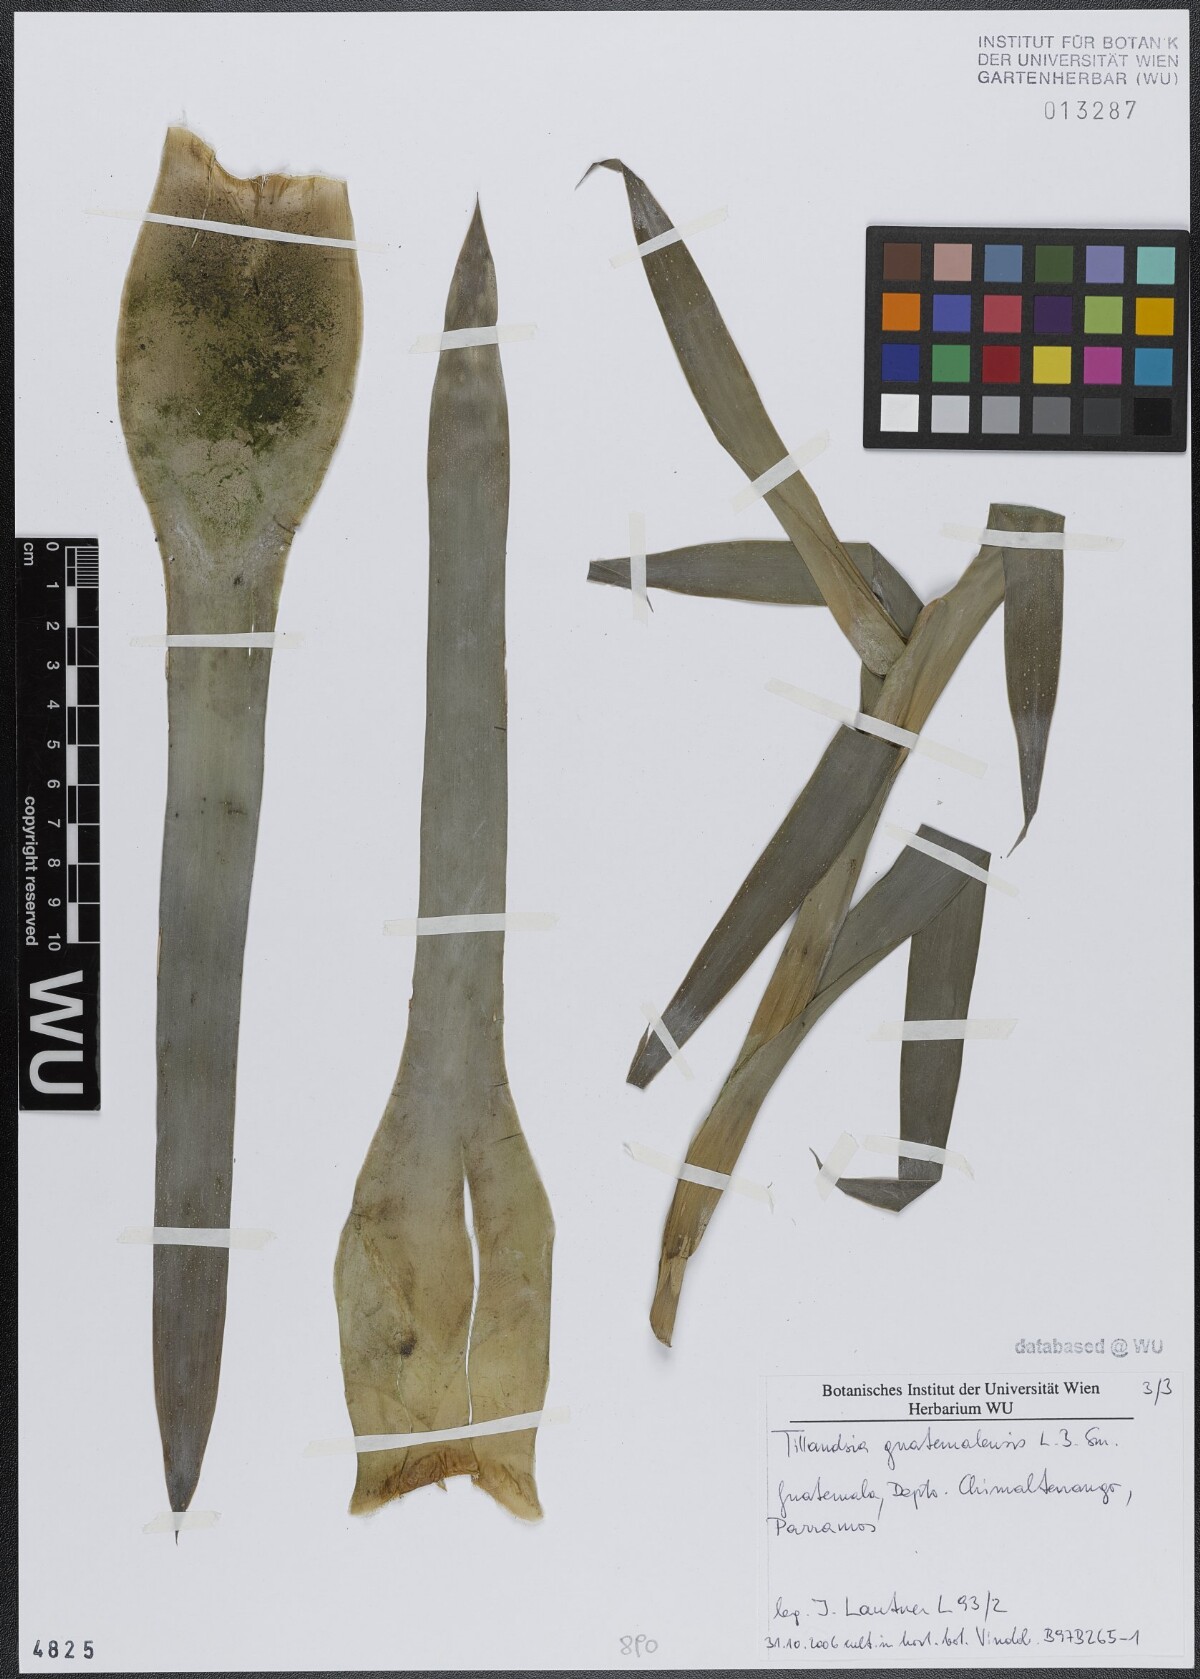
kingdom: Plantae
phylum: Tracheophyta
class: Liliopsida
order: Poales
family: Bromeliaceae
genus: Tillandsia
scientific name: Tillandsia guatemalensis
